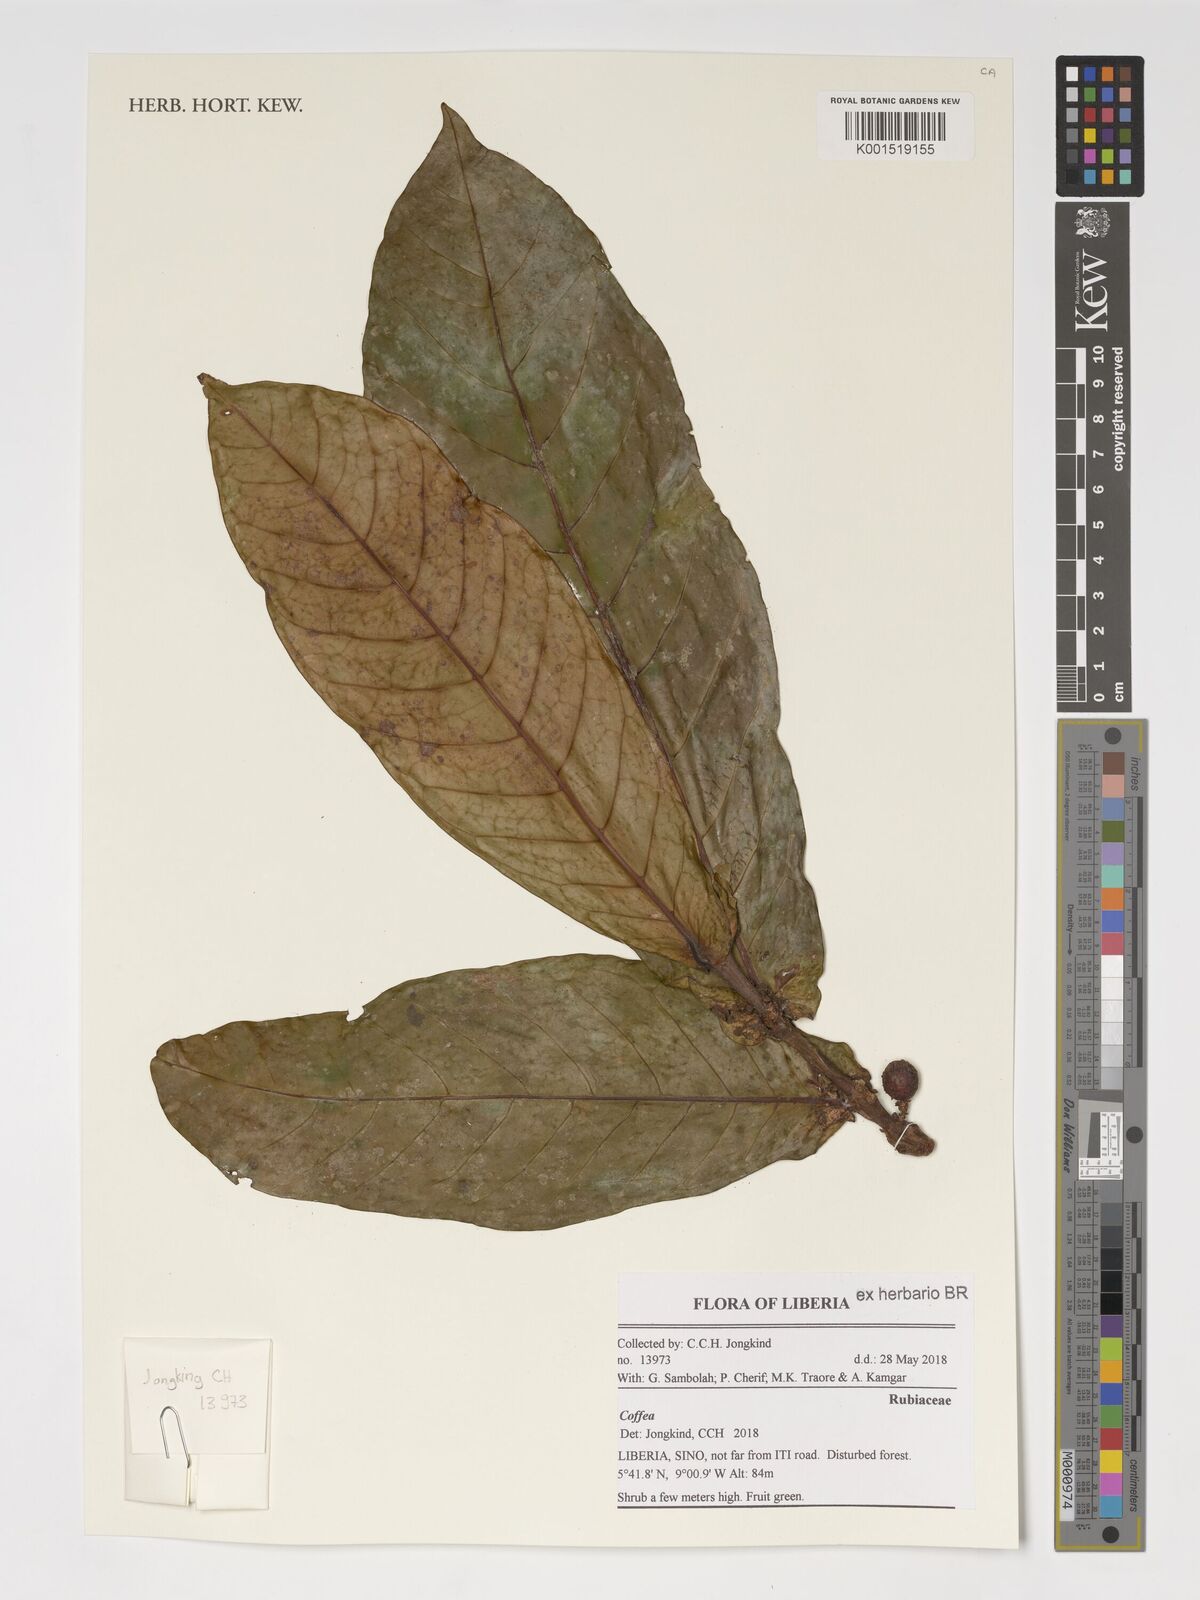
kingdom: Plantae
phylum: Tracheophyta
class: Magnoliopsida
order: Gentianales
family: Rubiaceae
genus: Coffea
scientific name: Coffea
